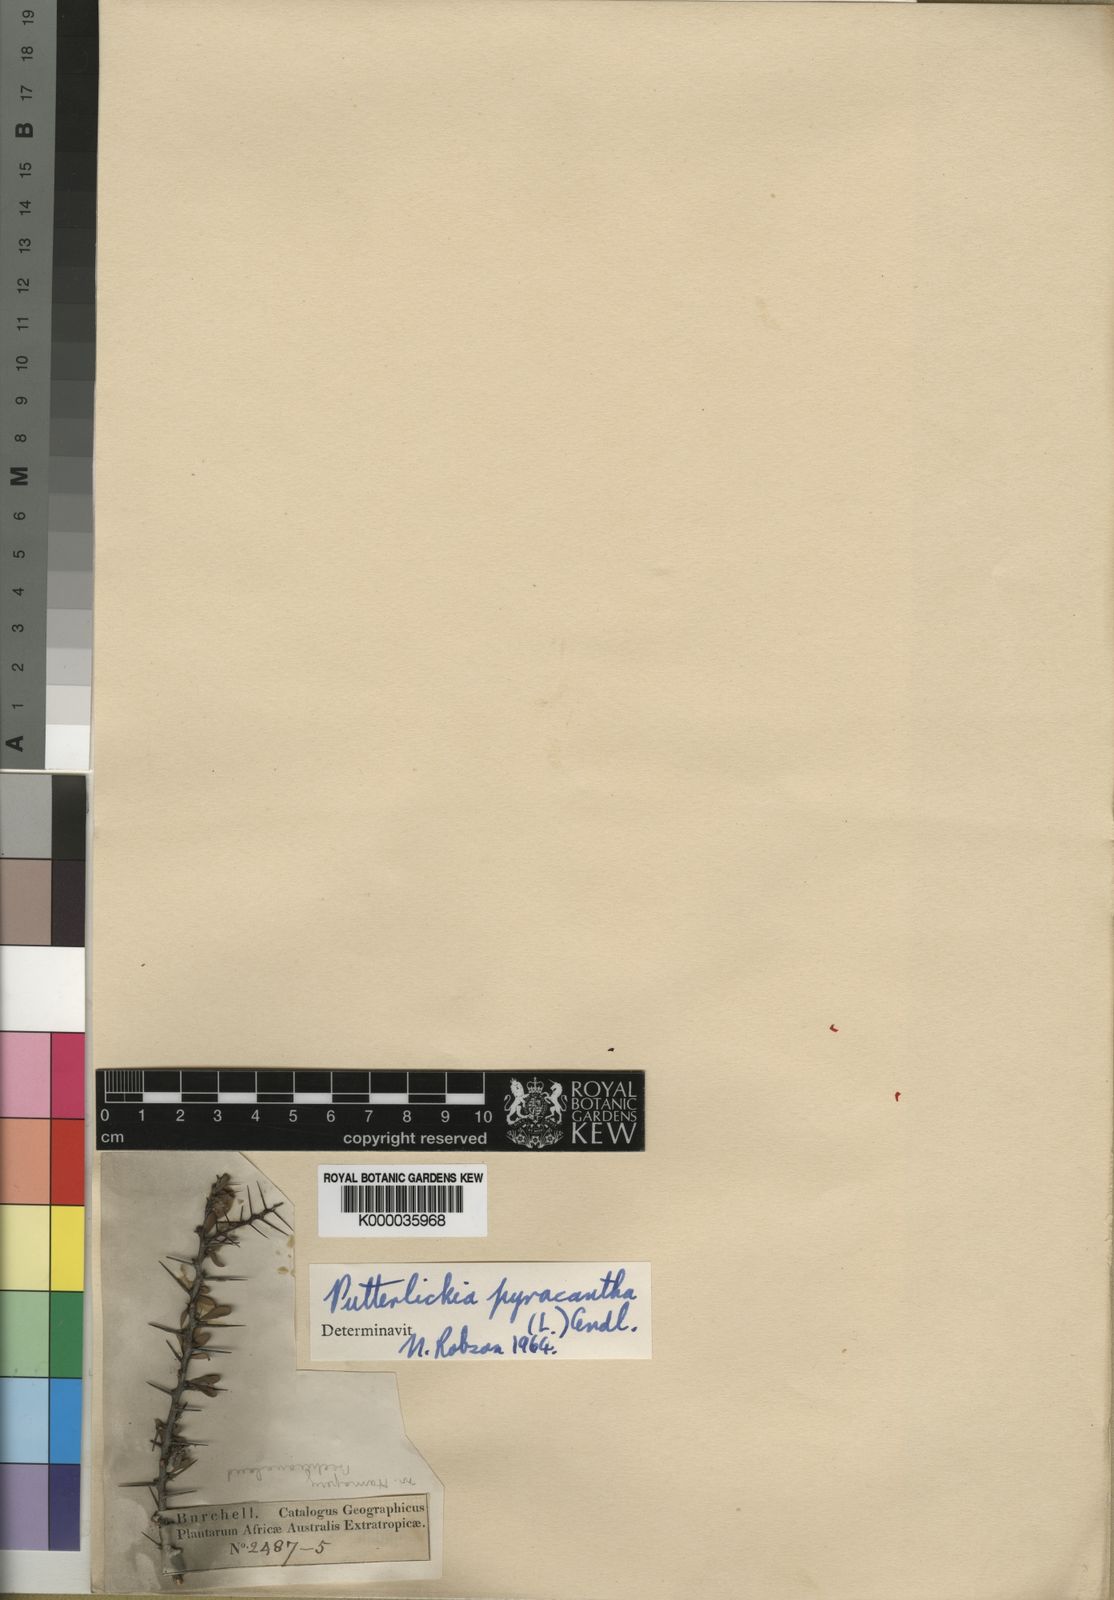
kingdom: Plantae
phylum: Tracheophyta
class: Magnoliopsida
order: Celastrales
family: Celastraceae
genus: Putterlickia
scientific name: Putterlickia
